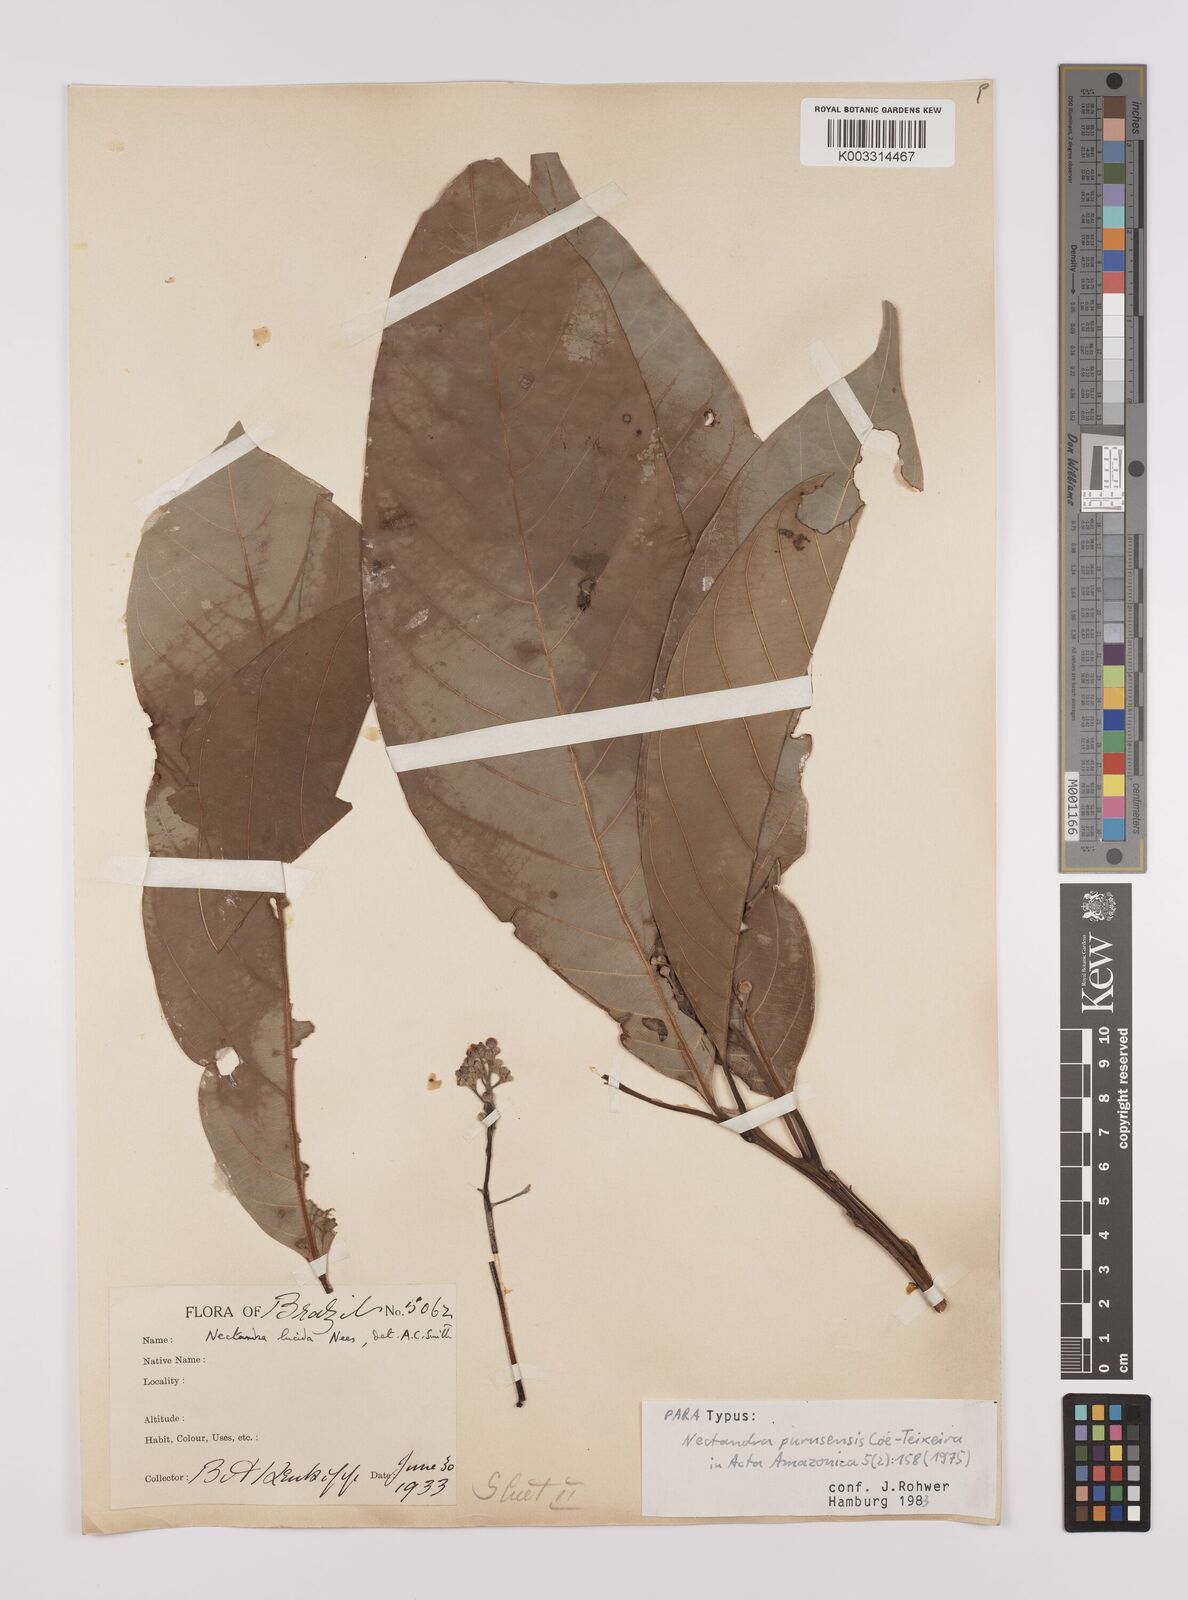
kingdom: Plantae
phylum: Tracheophyta
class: Magnoliopsida
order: Laurales
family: Lauraceae
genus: Endlicheria
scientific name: Endlicheria paniculata
